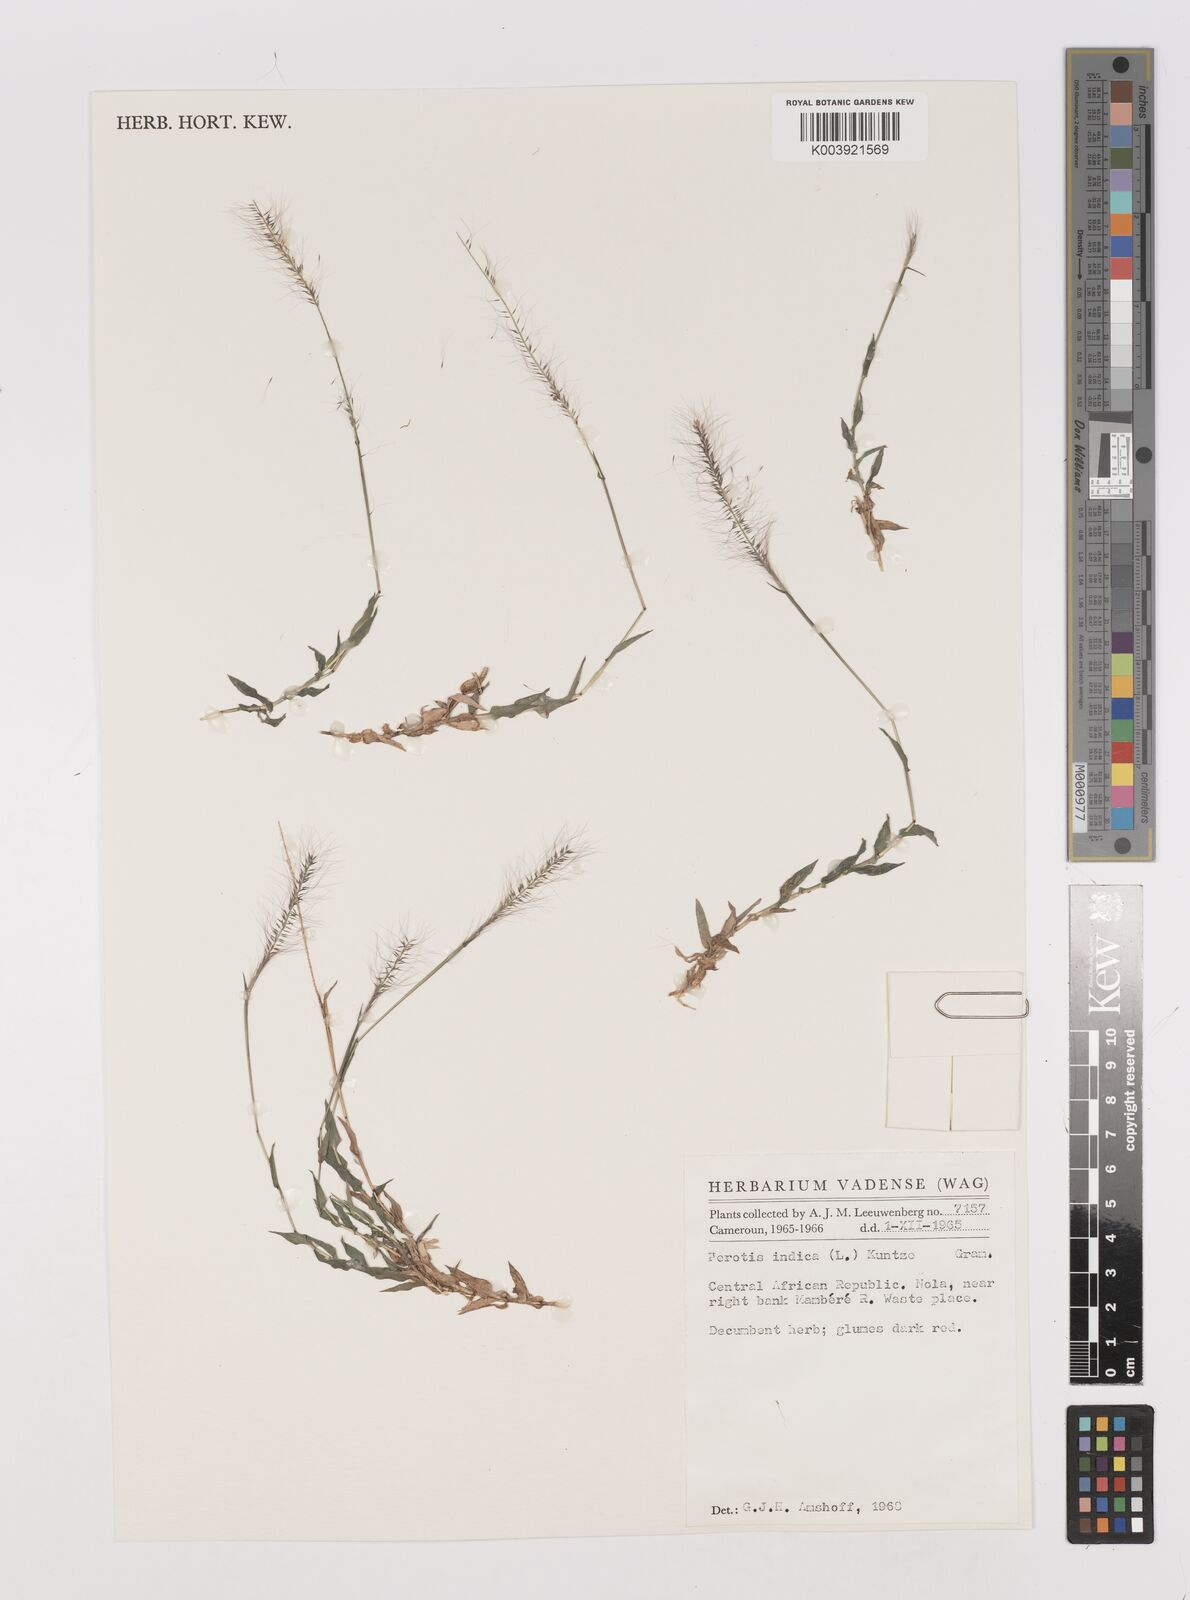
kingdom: Plantae
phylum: Tracheophyta
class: Liliopsida
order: Poales
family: Poaceae
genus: Perotis
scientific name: Perotis indica
